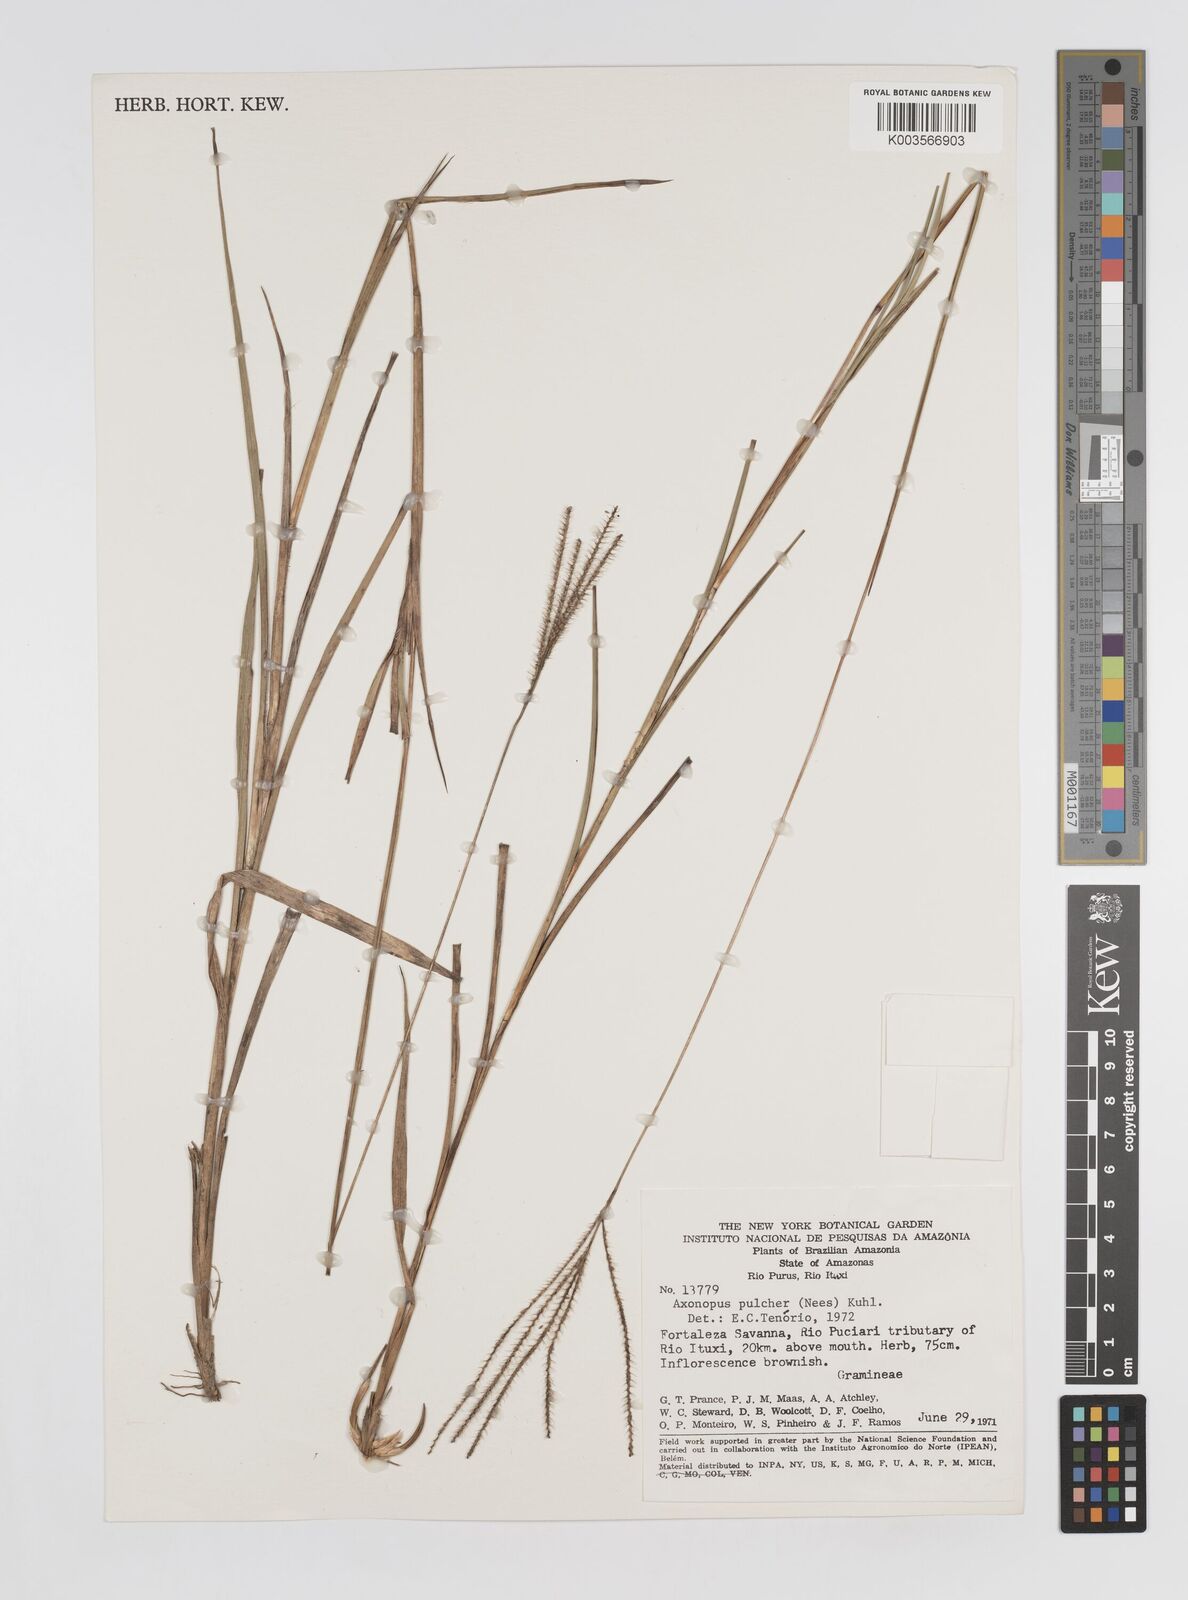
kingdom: Plantae
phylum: Tracheophyta
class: Liliopsida
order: Poales
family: Poaceae
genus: Axonopus
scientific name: Axonopus aureus
